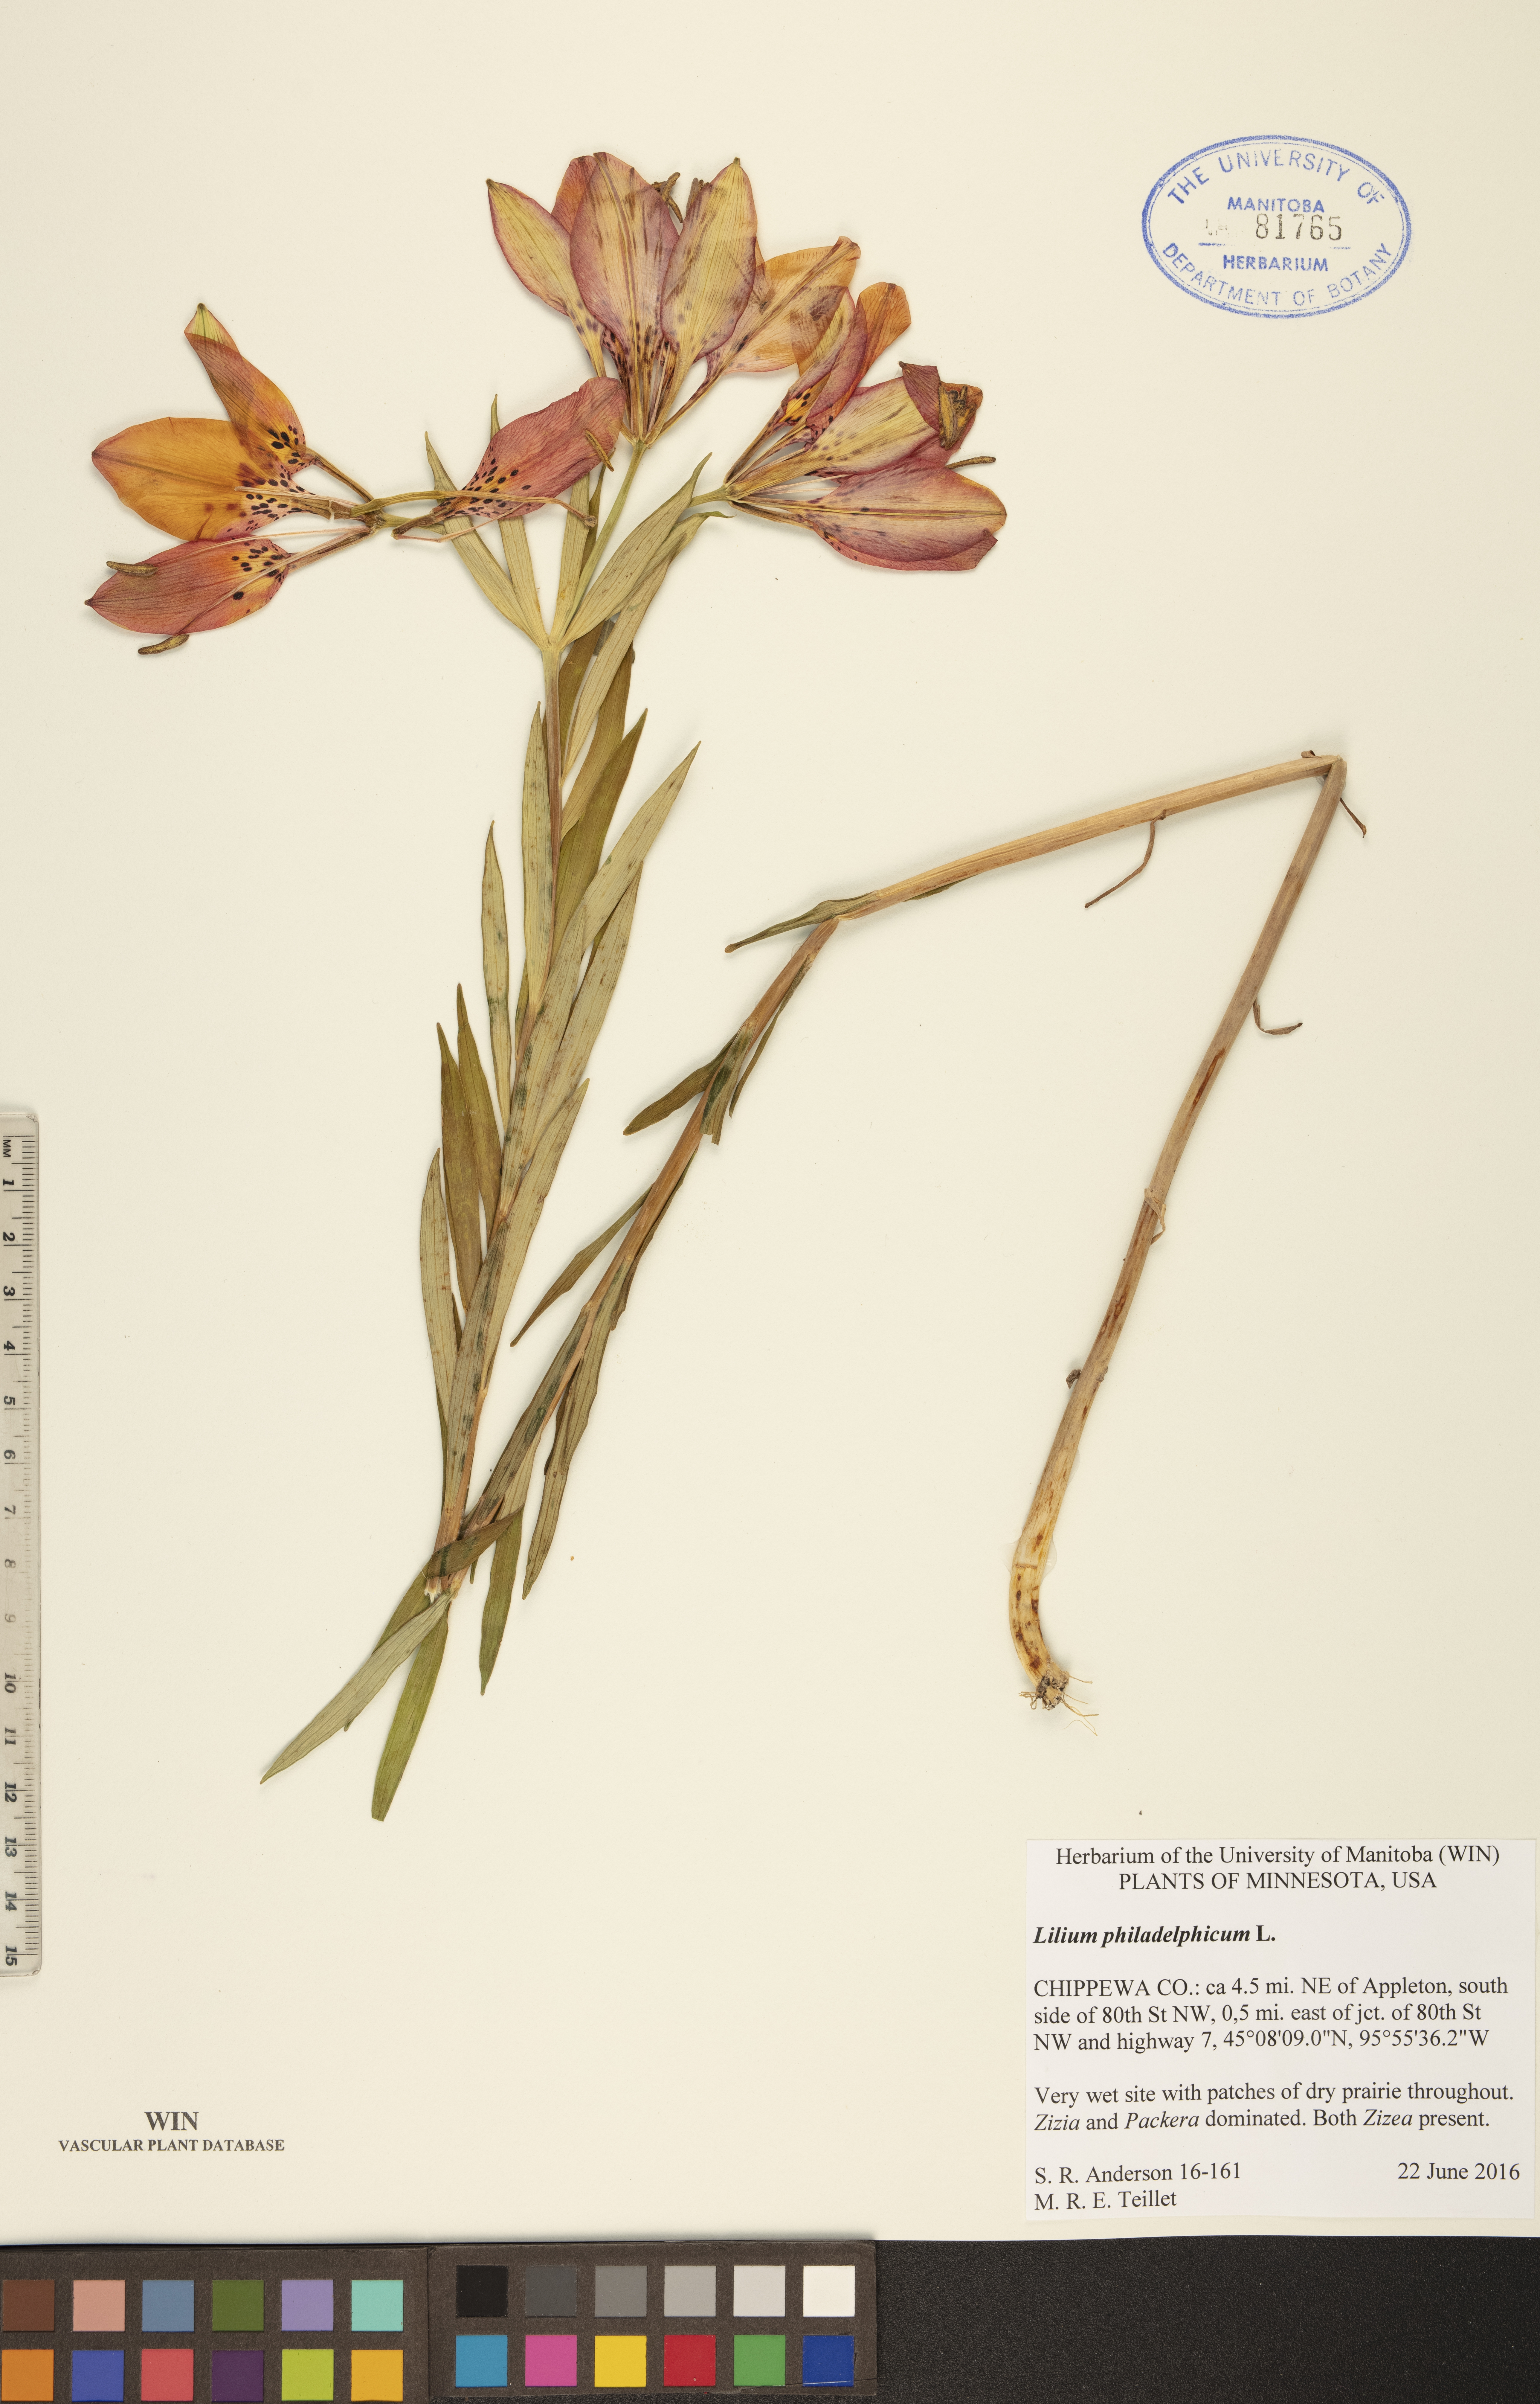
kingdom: Plantae
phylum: Tracheophyta
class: Liliopsida
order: Liliales
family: Liliaceae
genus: Lilium
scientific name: Lilium philadelphicum
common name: Red lily
